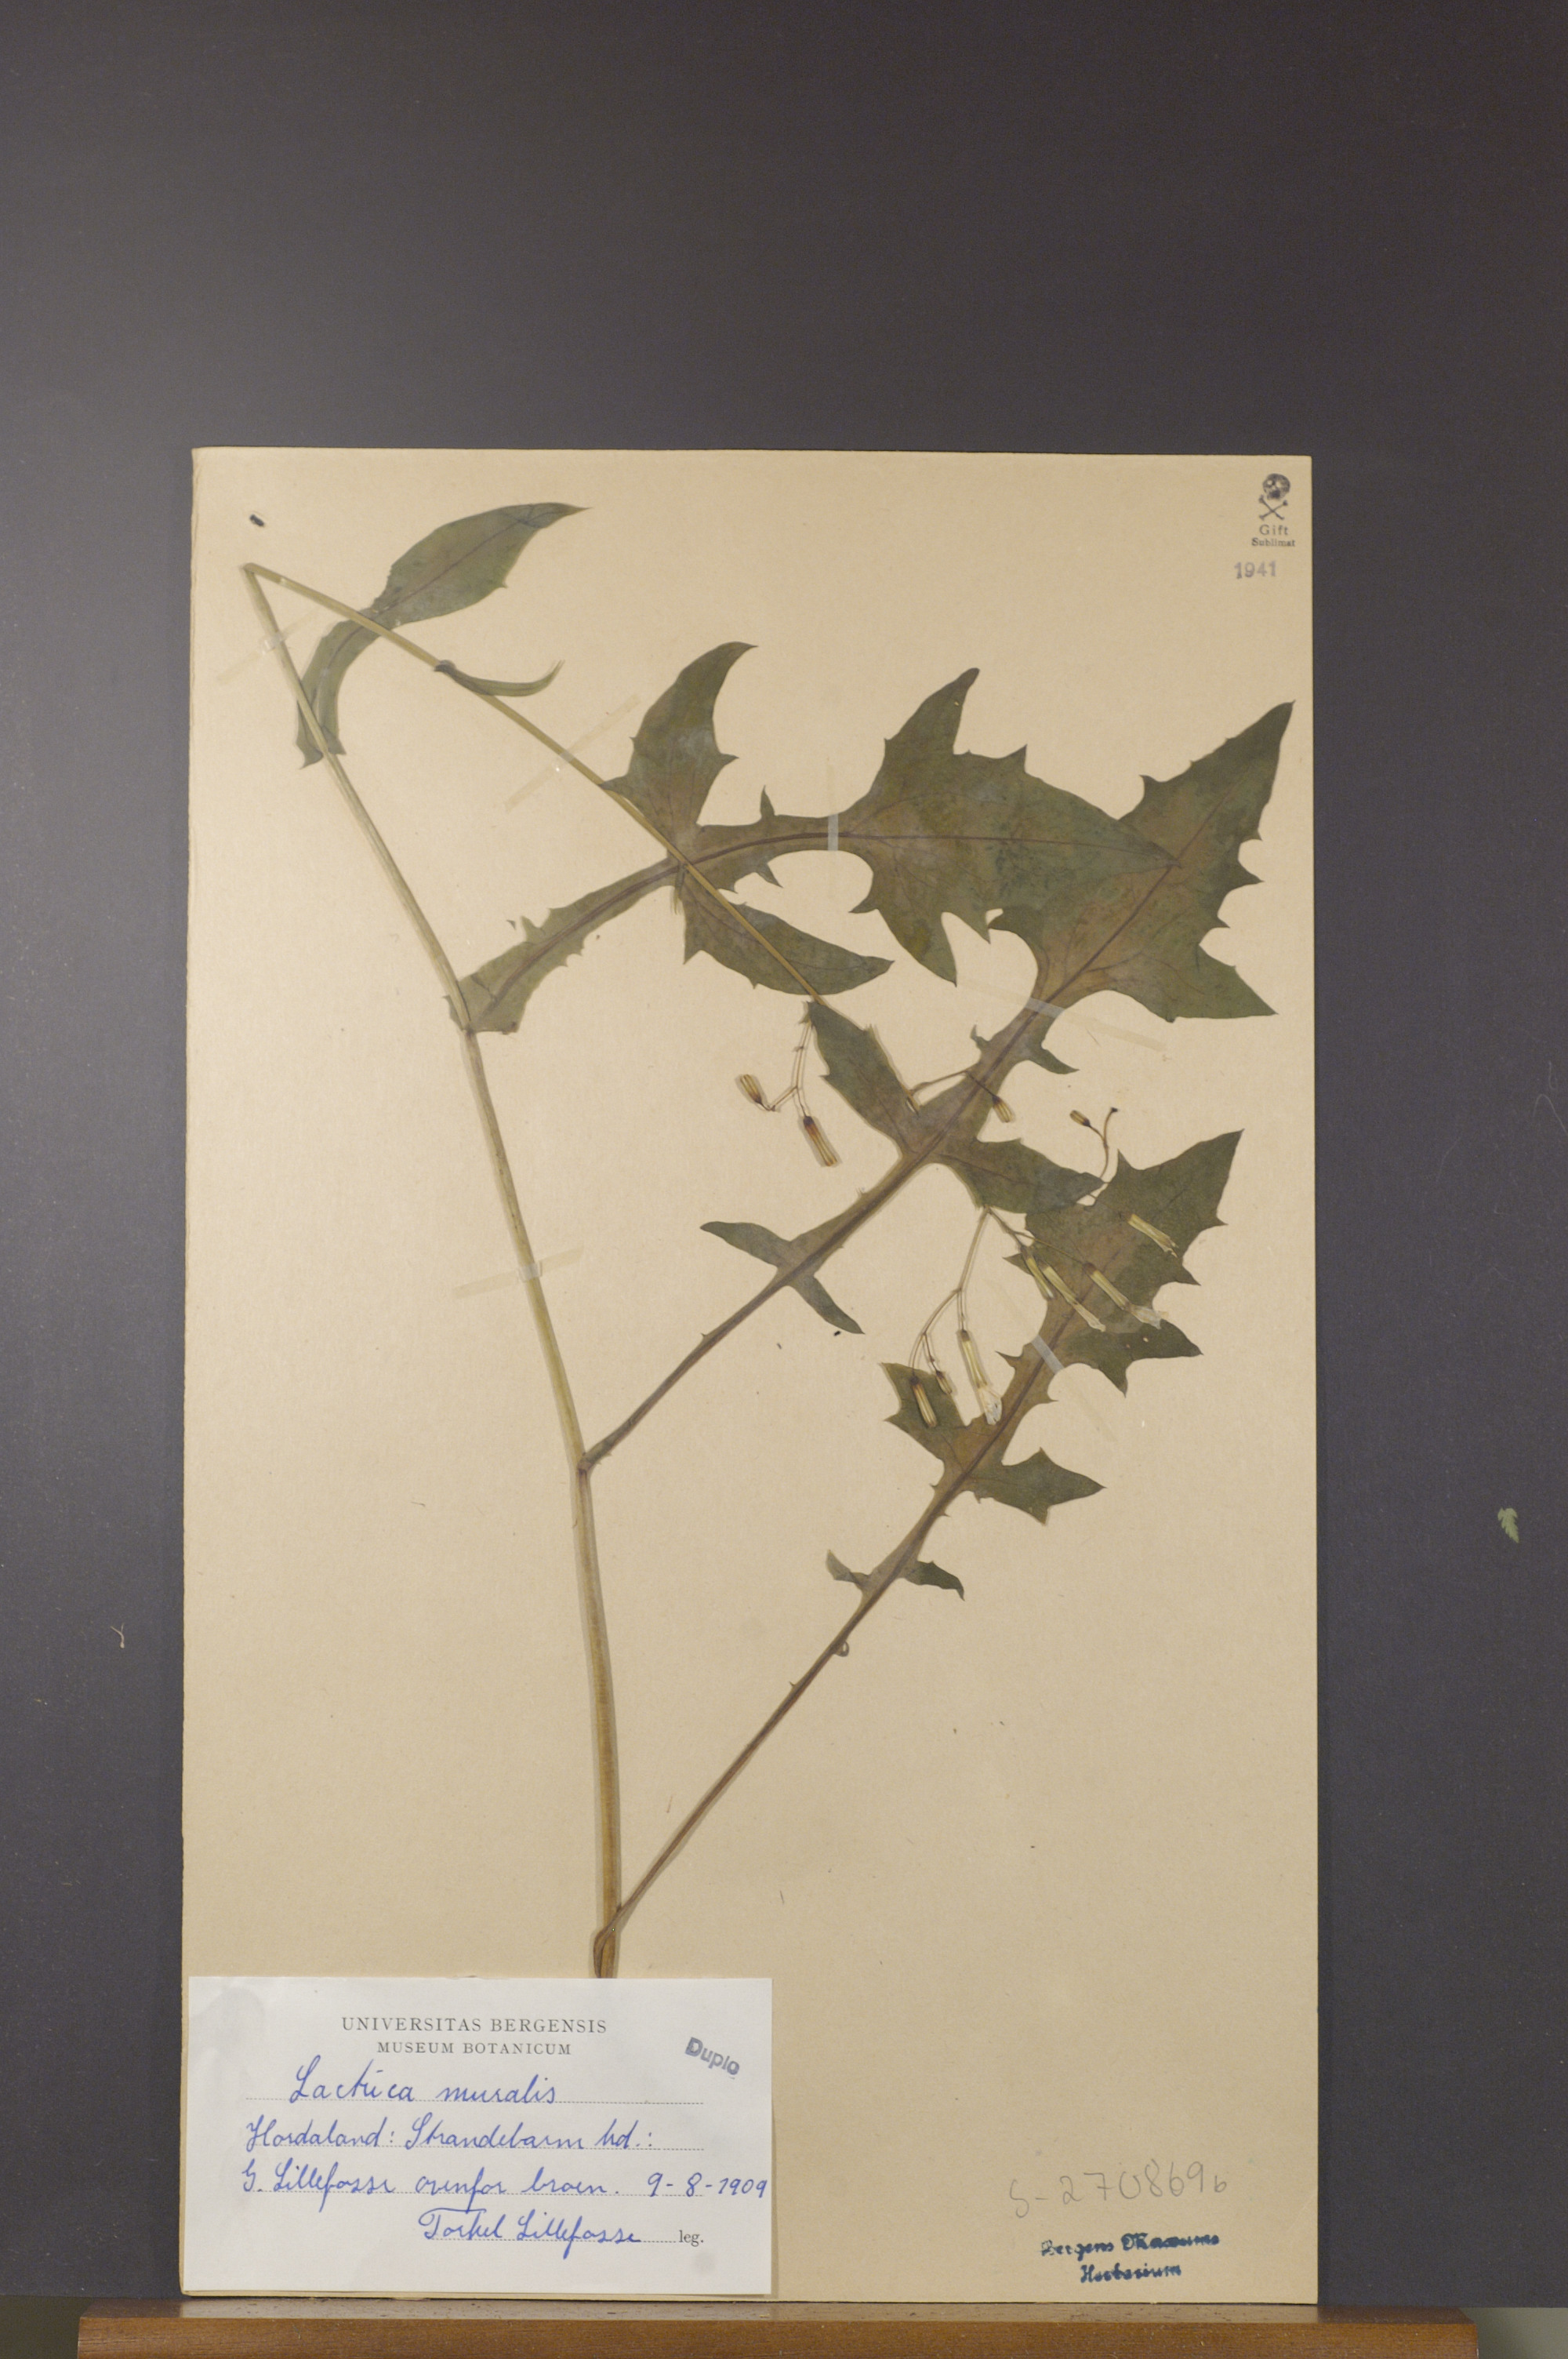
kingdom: Plantae
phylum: Tracheophyta
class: Magnoliopsida
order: Asterales
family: Asteraceae
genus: Mycelis
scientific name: Mycelis muralis
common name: Wall lettuce
